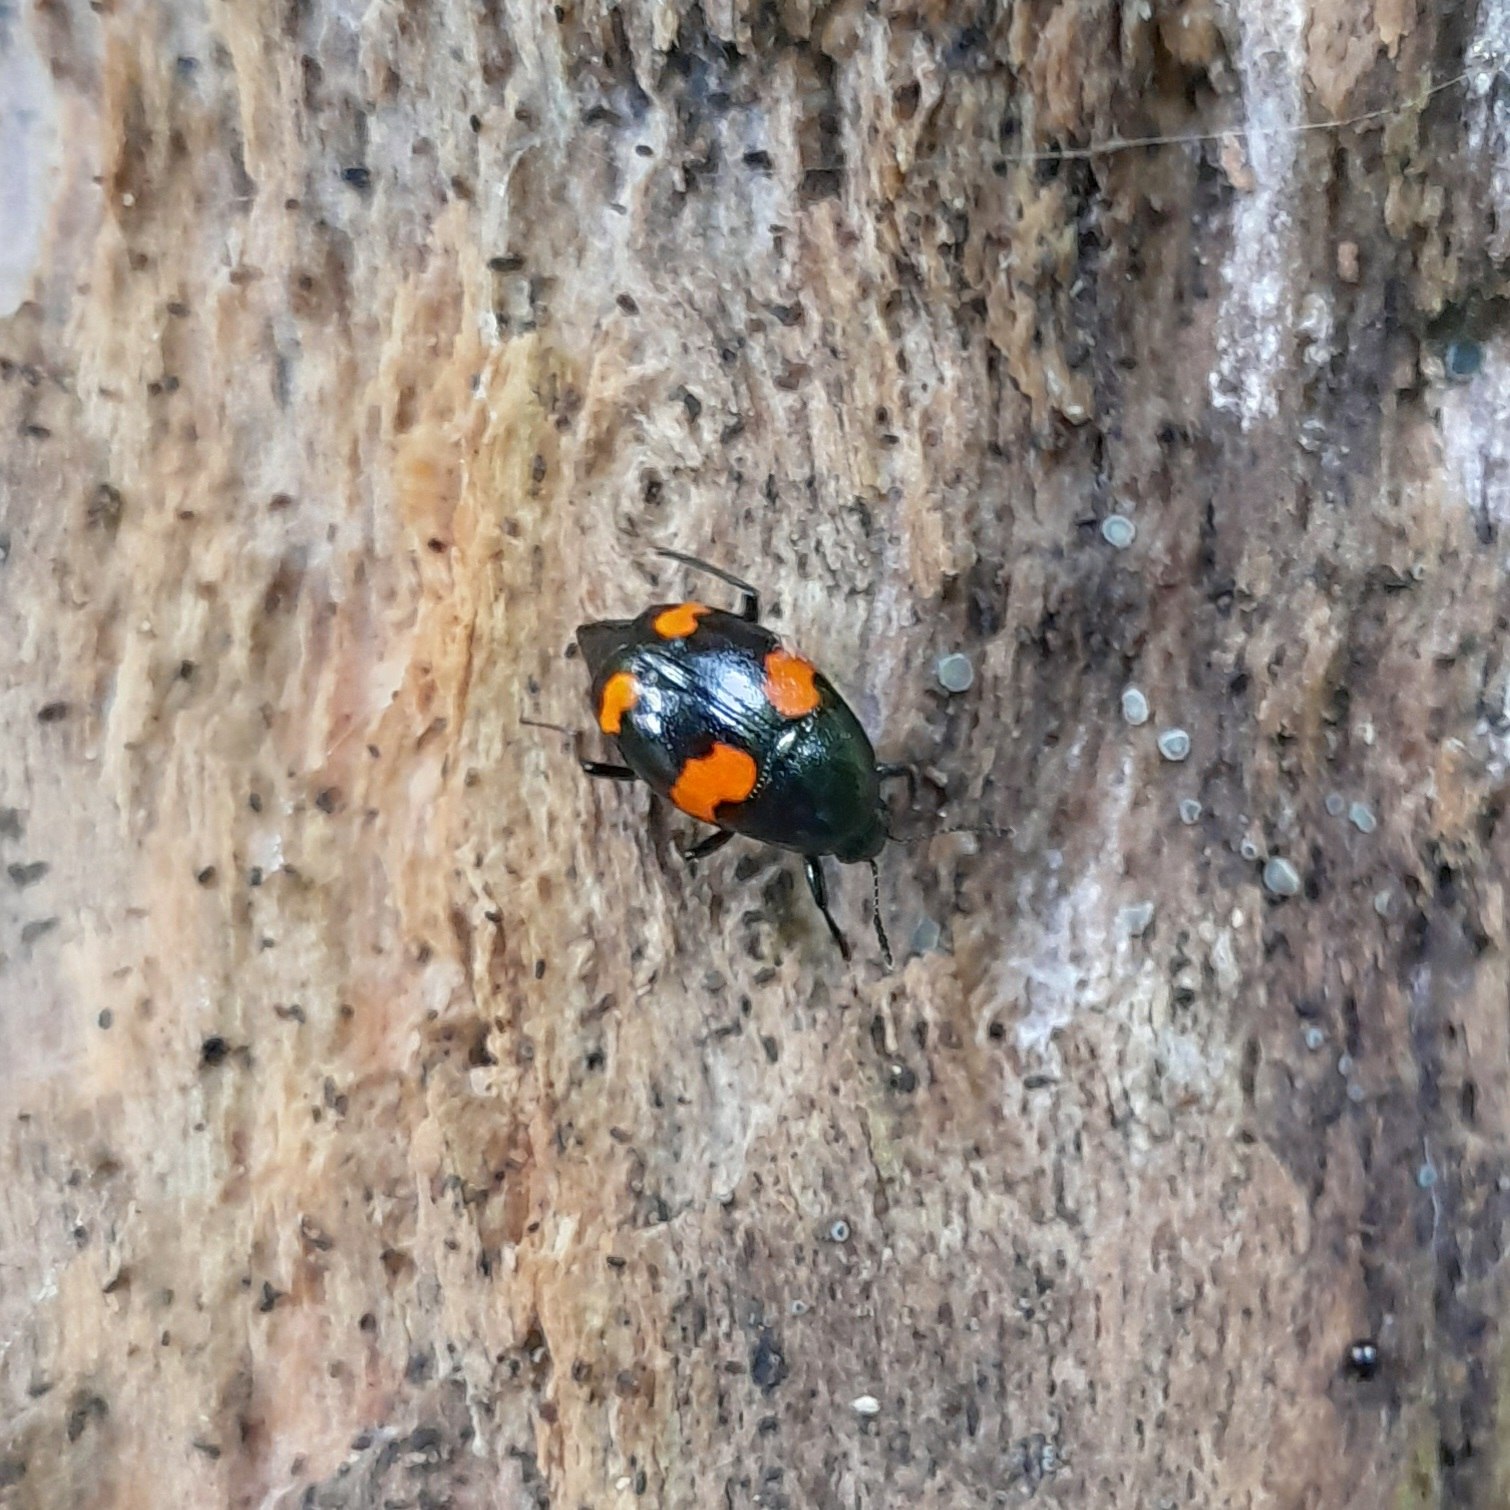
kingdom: Animalia
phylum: Arthropoda
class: Insecta
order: Coleoptera
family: Staphylinidae
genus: Scaphidium
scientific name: Scaphidium quadrimaculatum
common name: Dråberovbille
